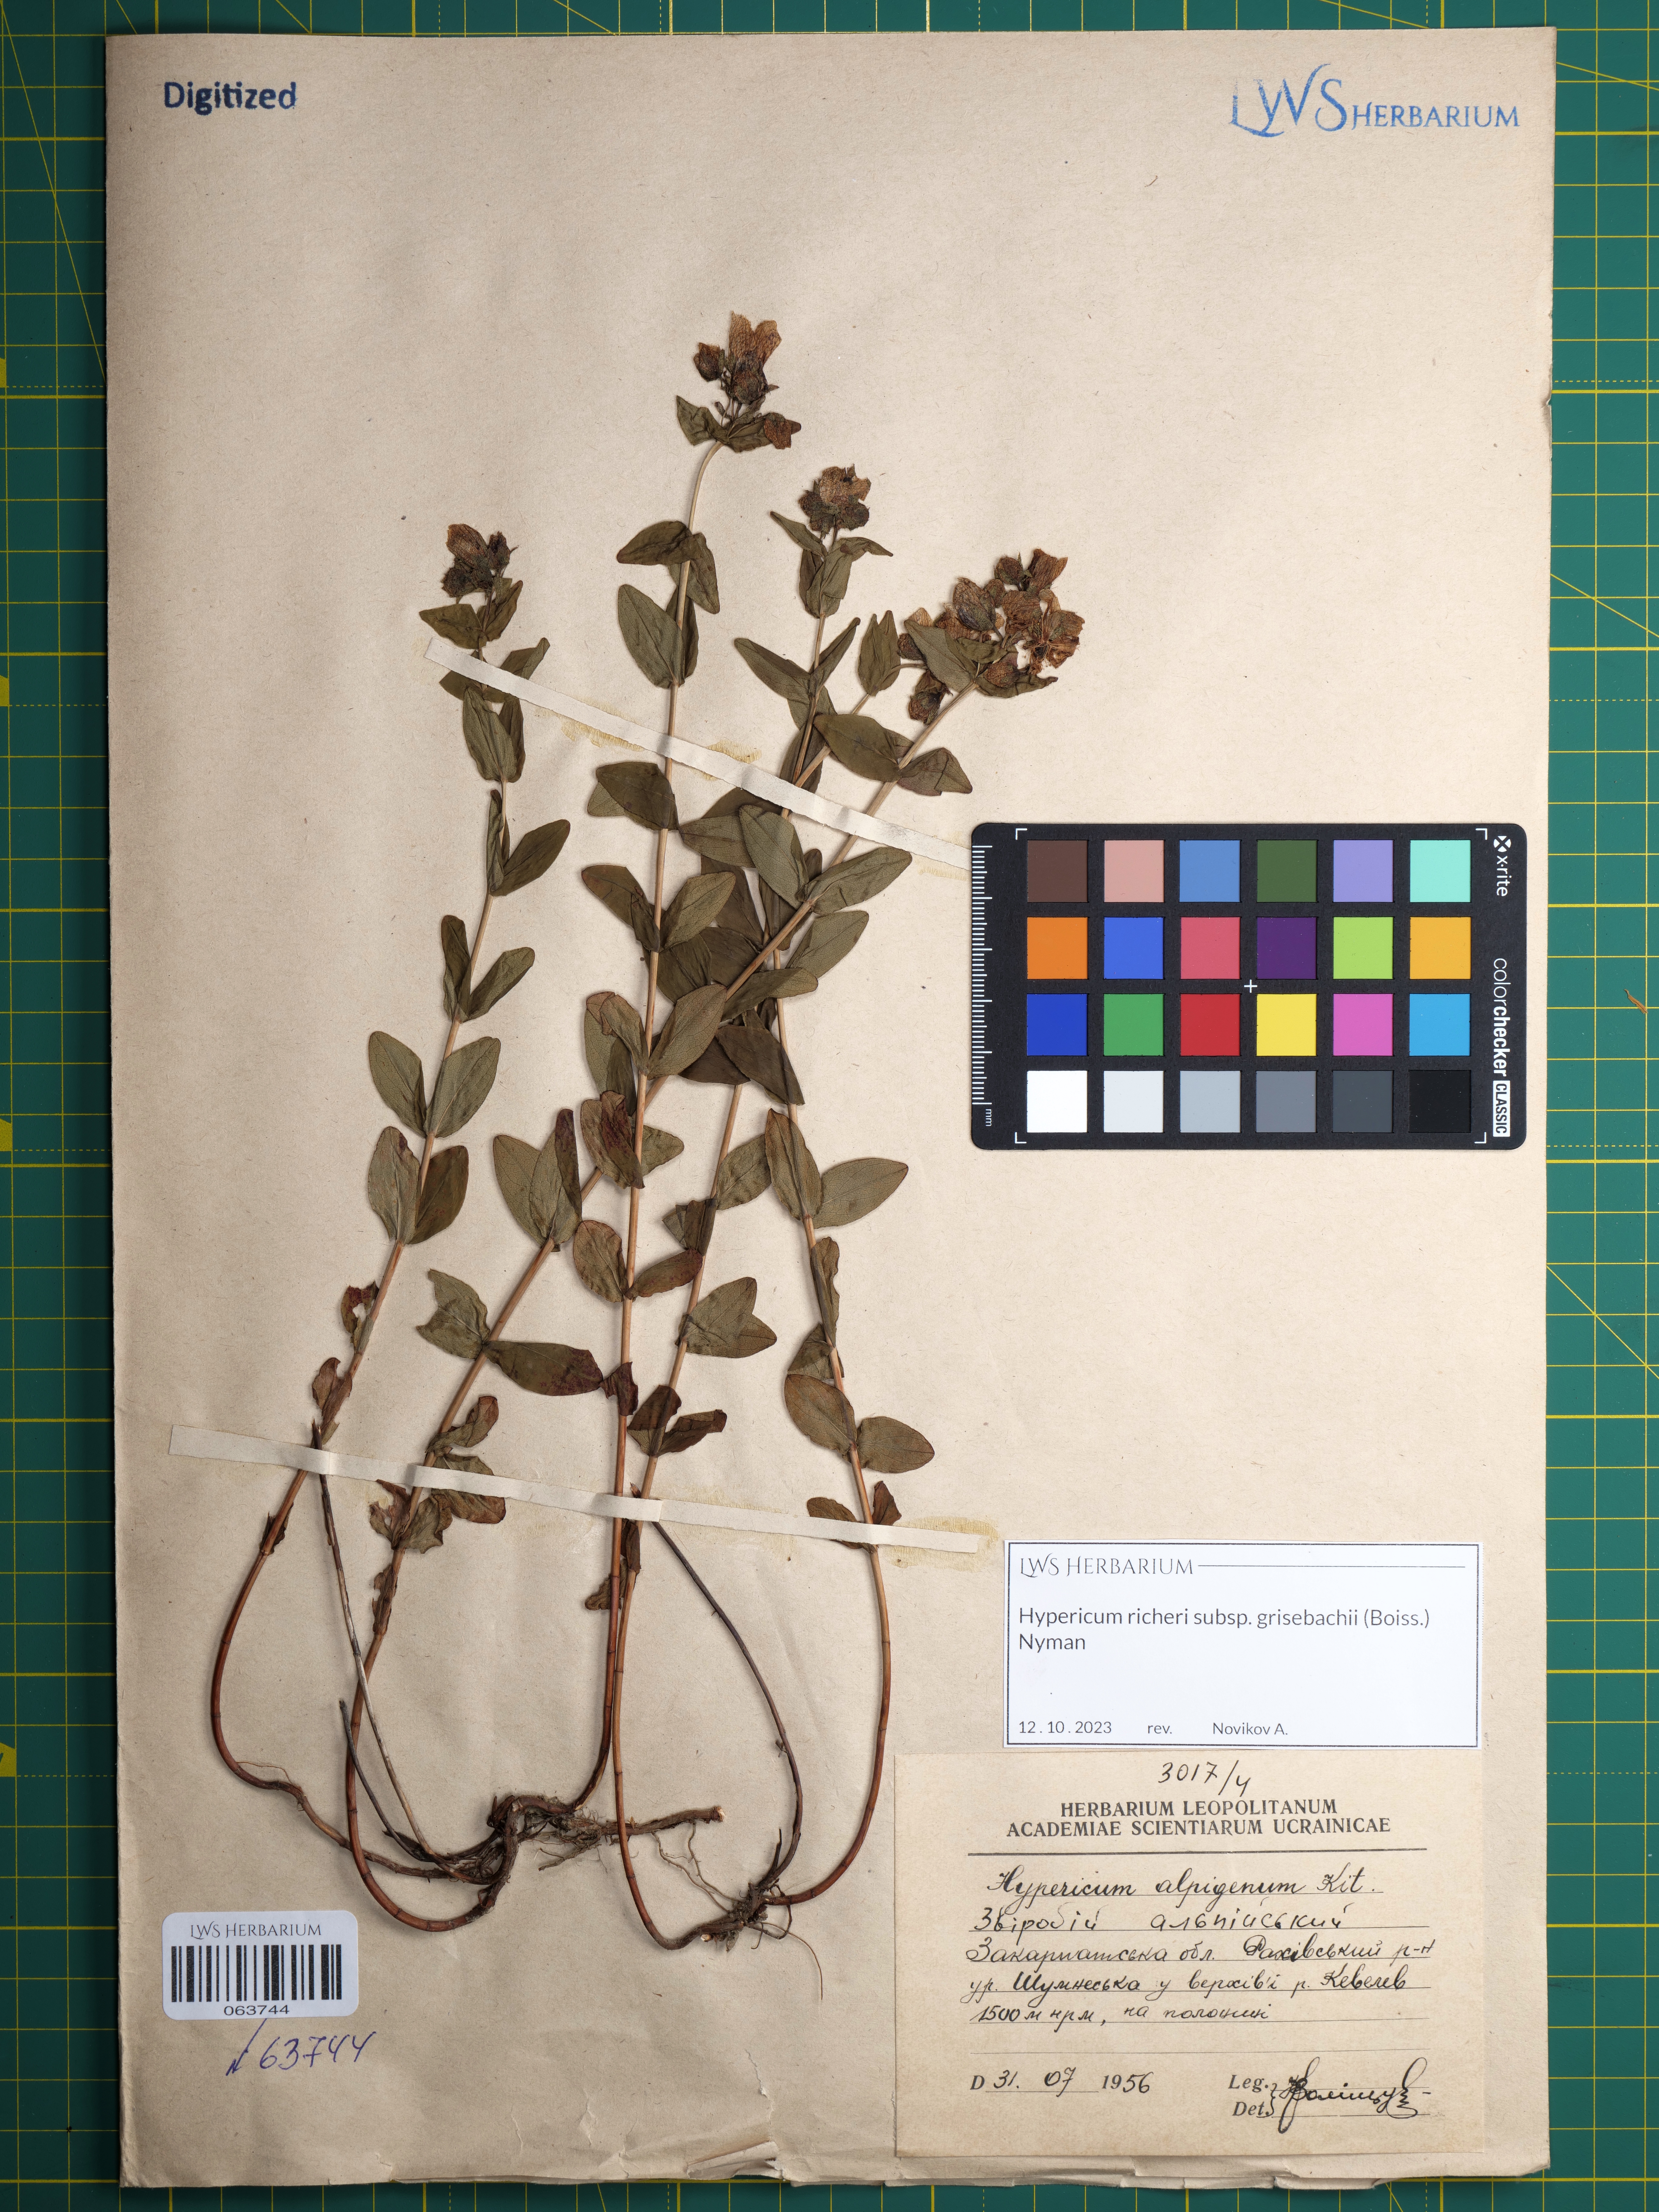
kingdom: Plantae
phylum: Tracheophyta
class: Magnoliopsida
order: Malpighiales
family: Hypericaceae
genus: Hypericum
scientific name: Hypericum richeri
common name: Alpine st john's-wort
